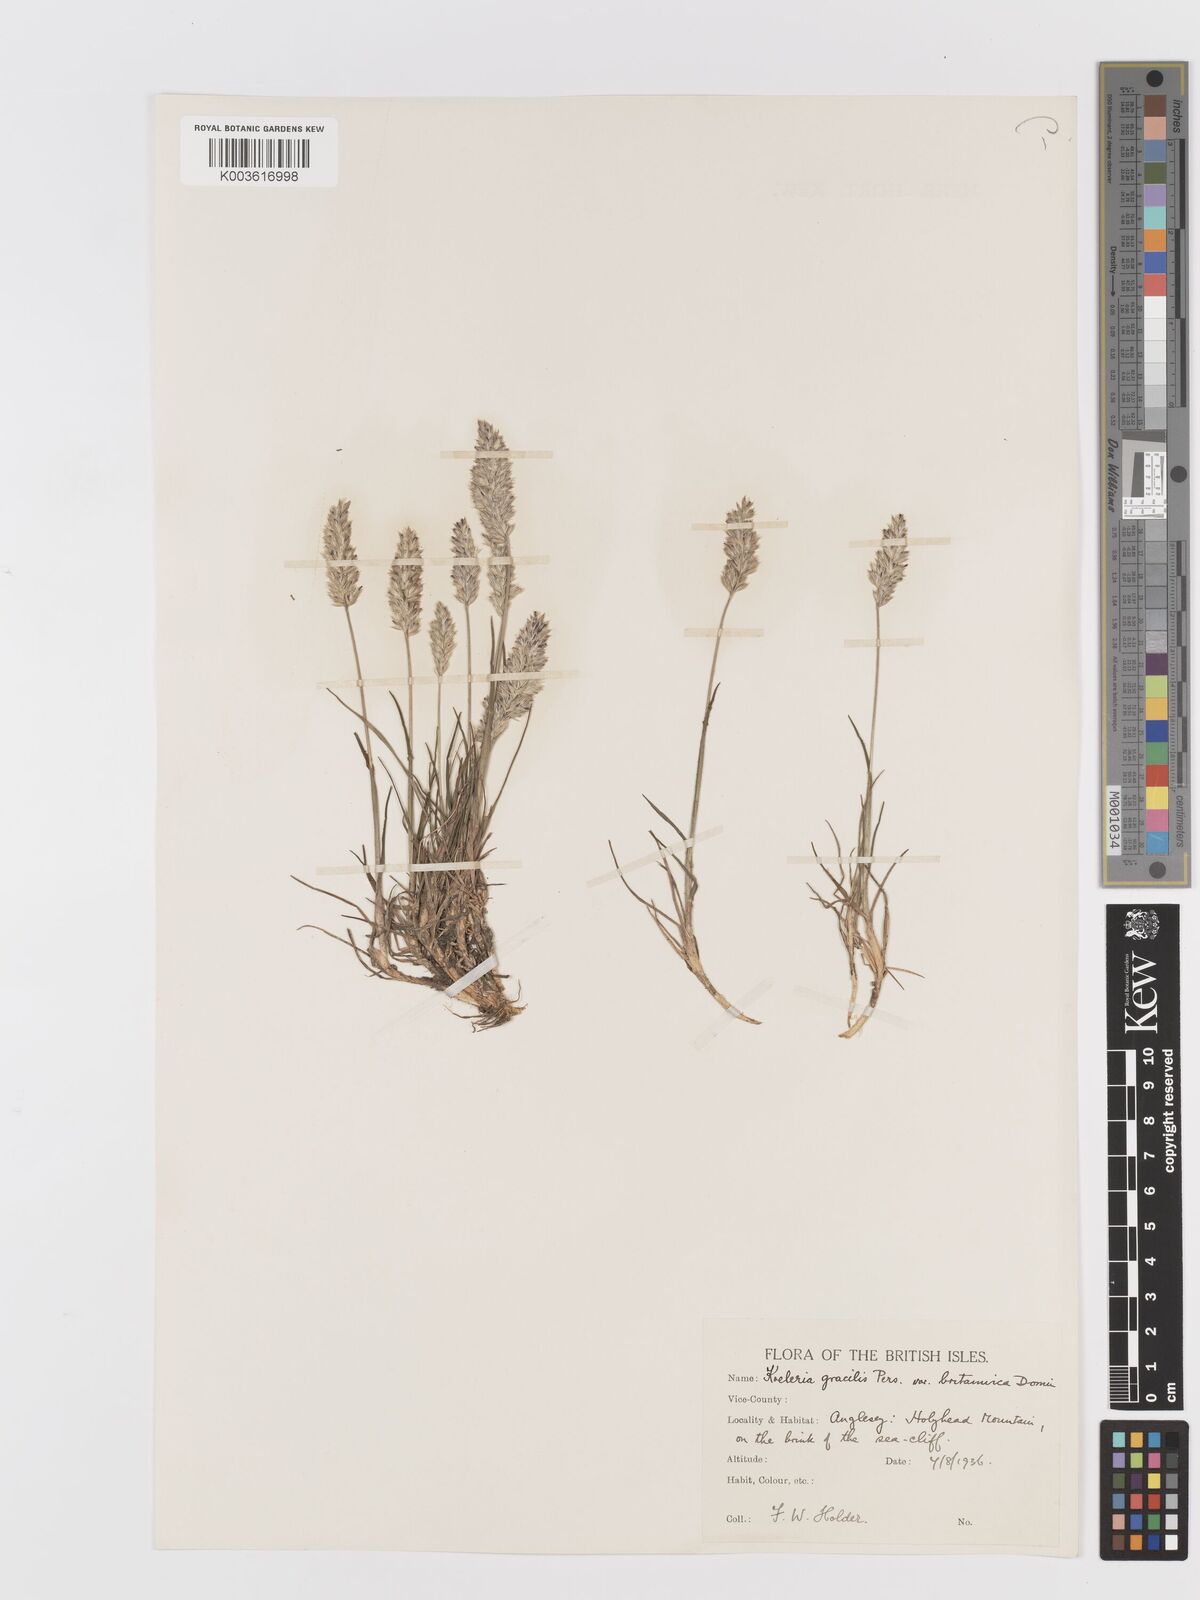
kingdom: Plantae
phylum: Tracheophyta
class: Liliopsida
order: Poales
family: Poaceae
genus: Koeleria
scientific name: Koeleria macrantha
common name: Crested hair-grass
